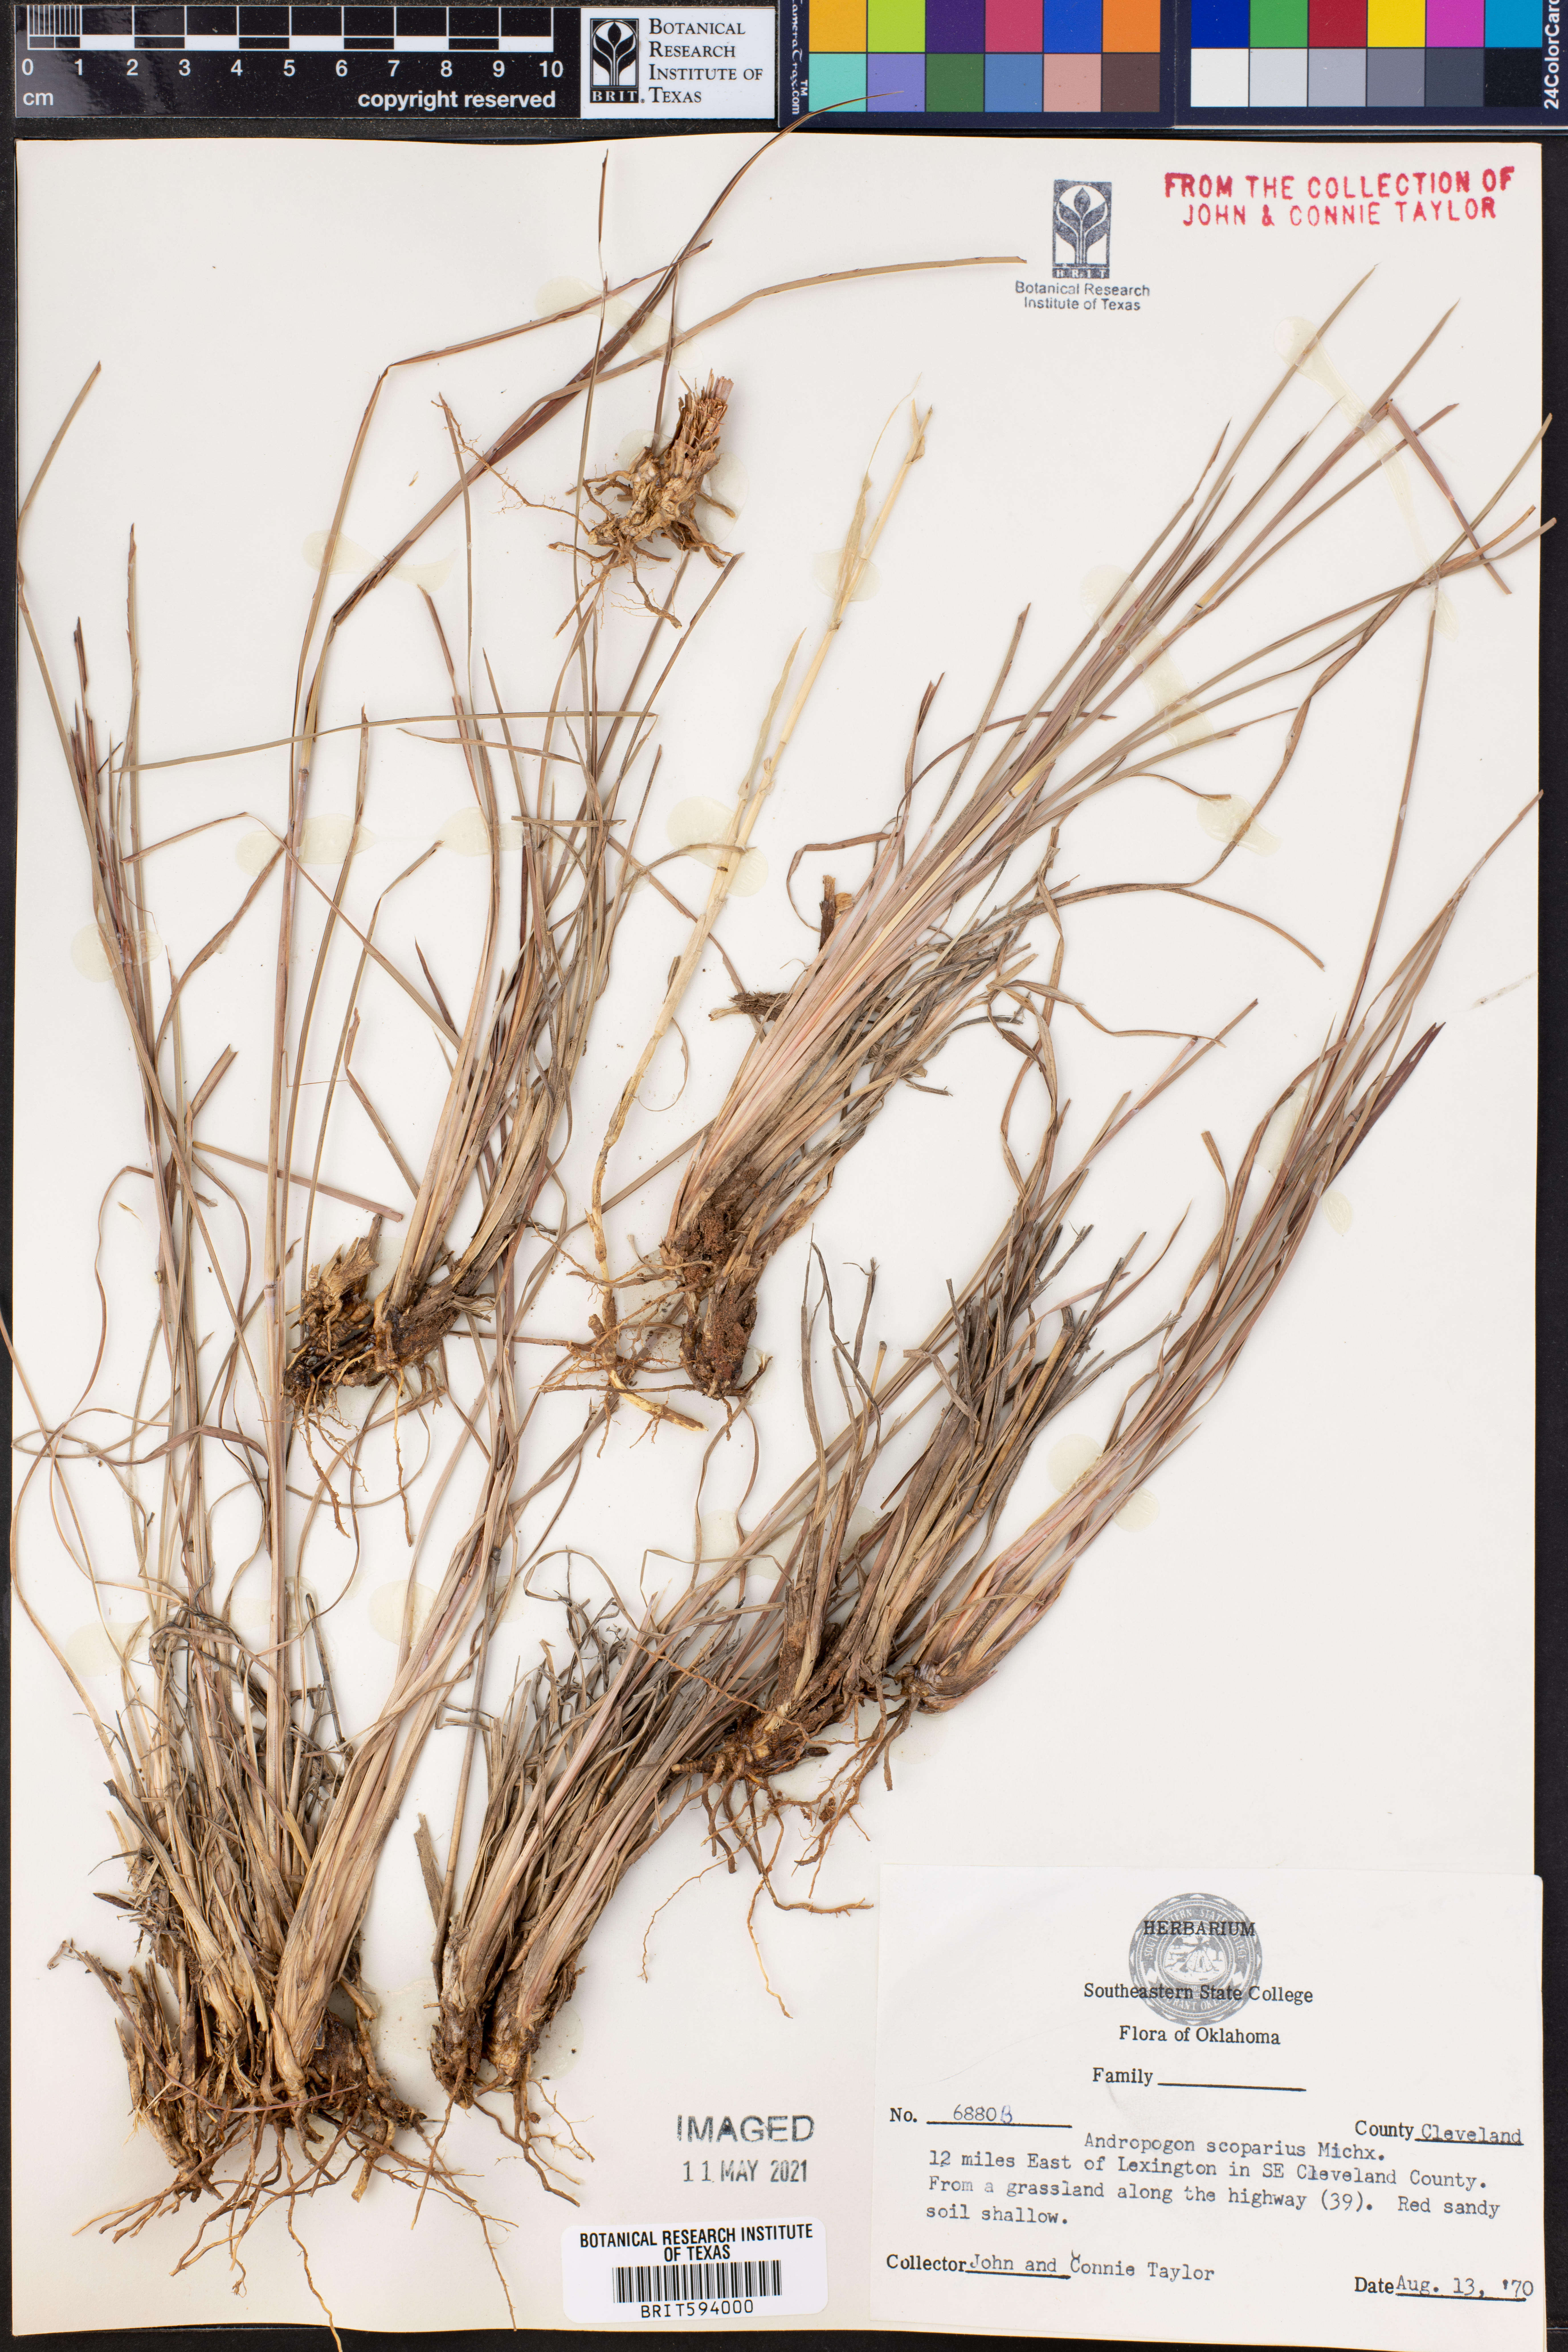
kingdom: Plantae
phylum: Tracheophyta
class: Liliopsida
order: Poales
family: Poaceae
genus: Schizachyrium
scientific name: Schizachyrium scoparium
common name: Little bluestem
